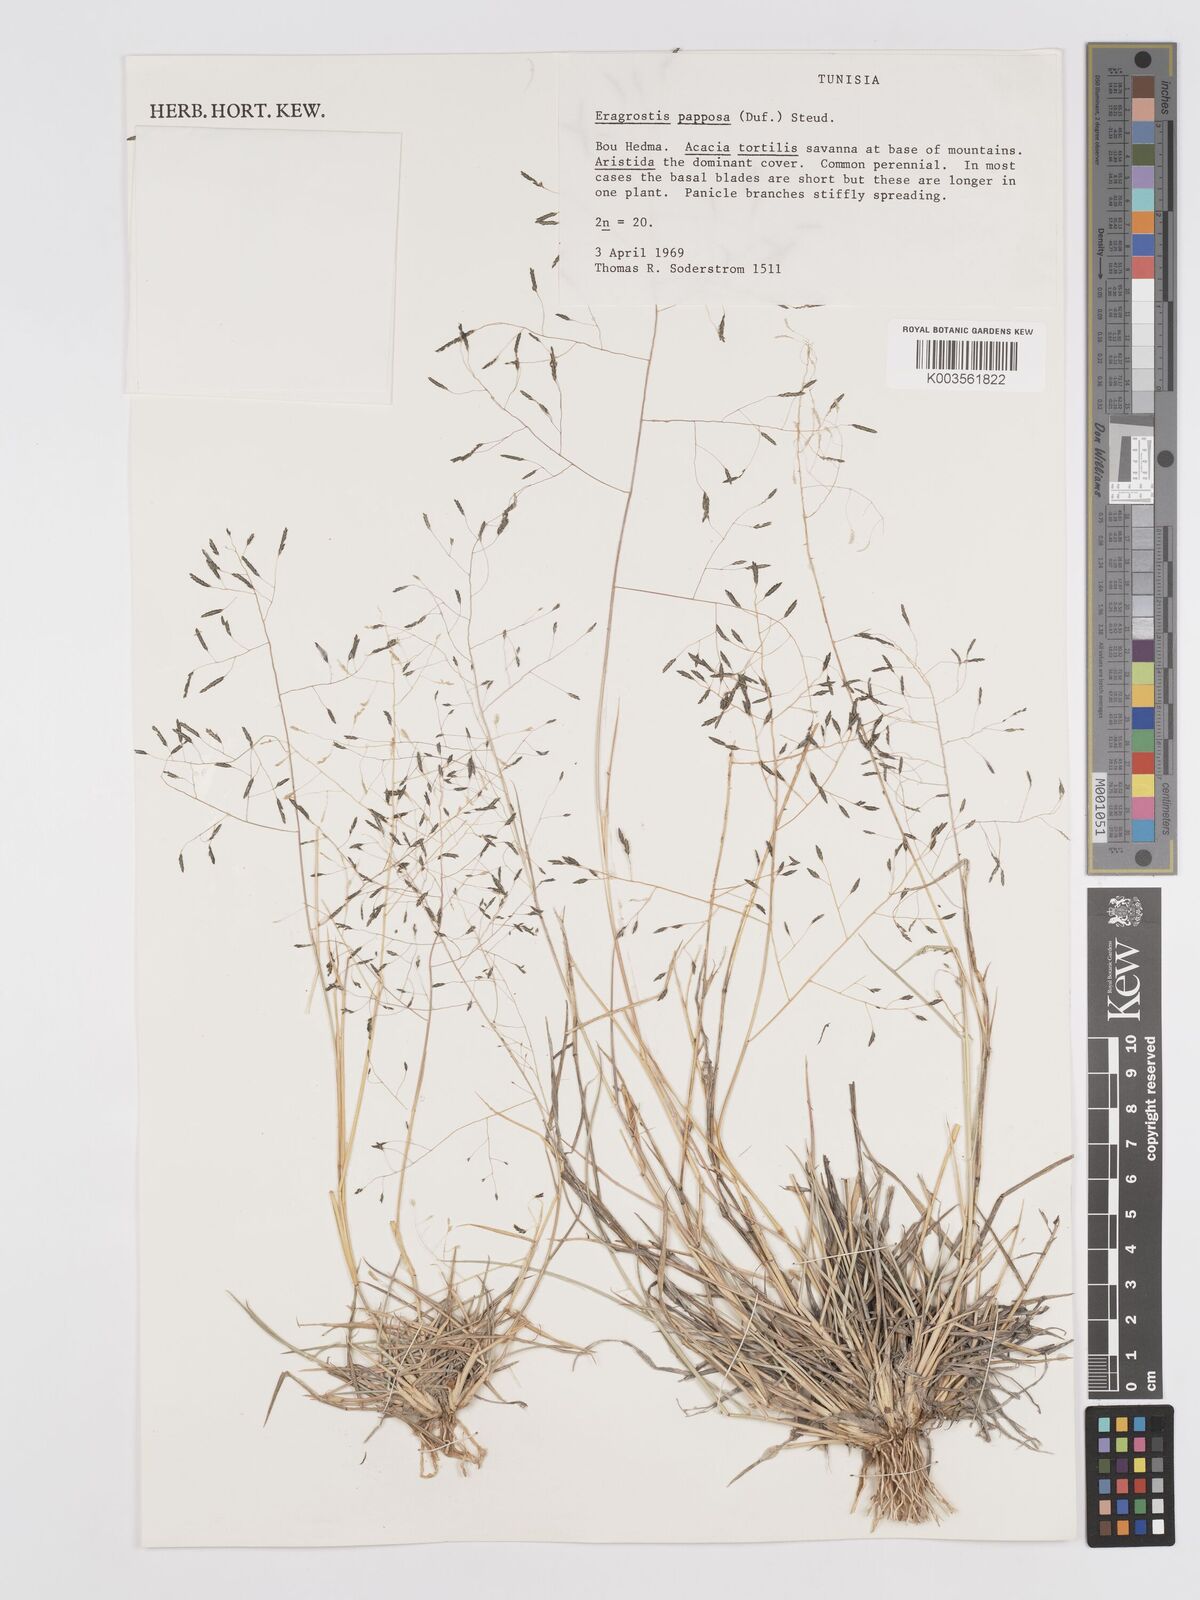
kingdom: Plantae
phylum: Tracheophyta
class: Liliopsida
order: Poales
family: Poaceae
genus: Eragrostis
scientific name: Eragrostis papposa
